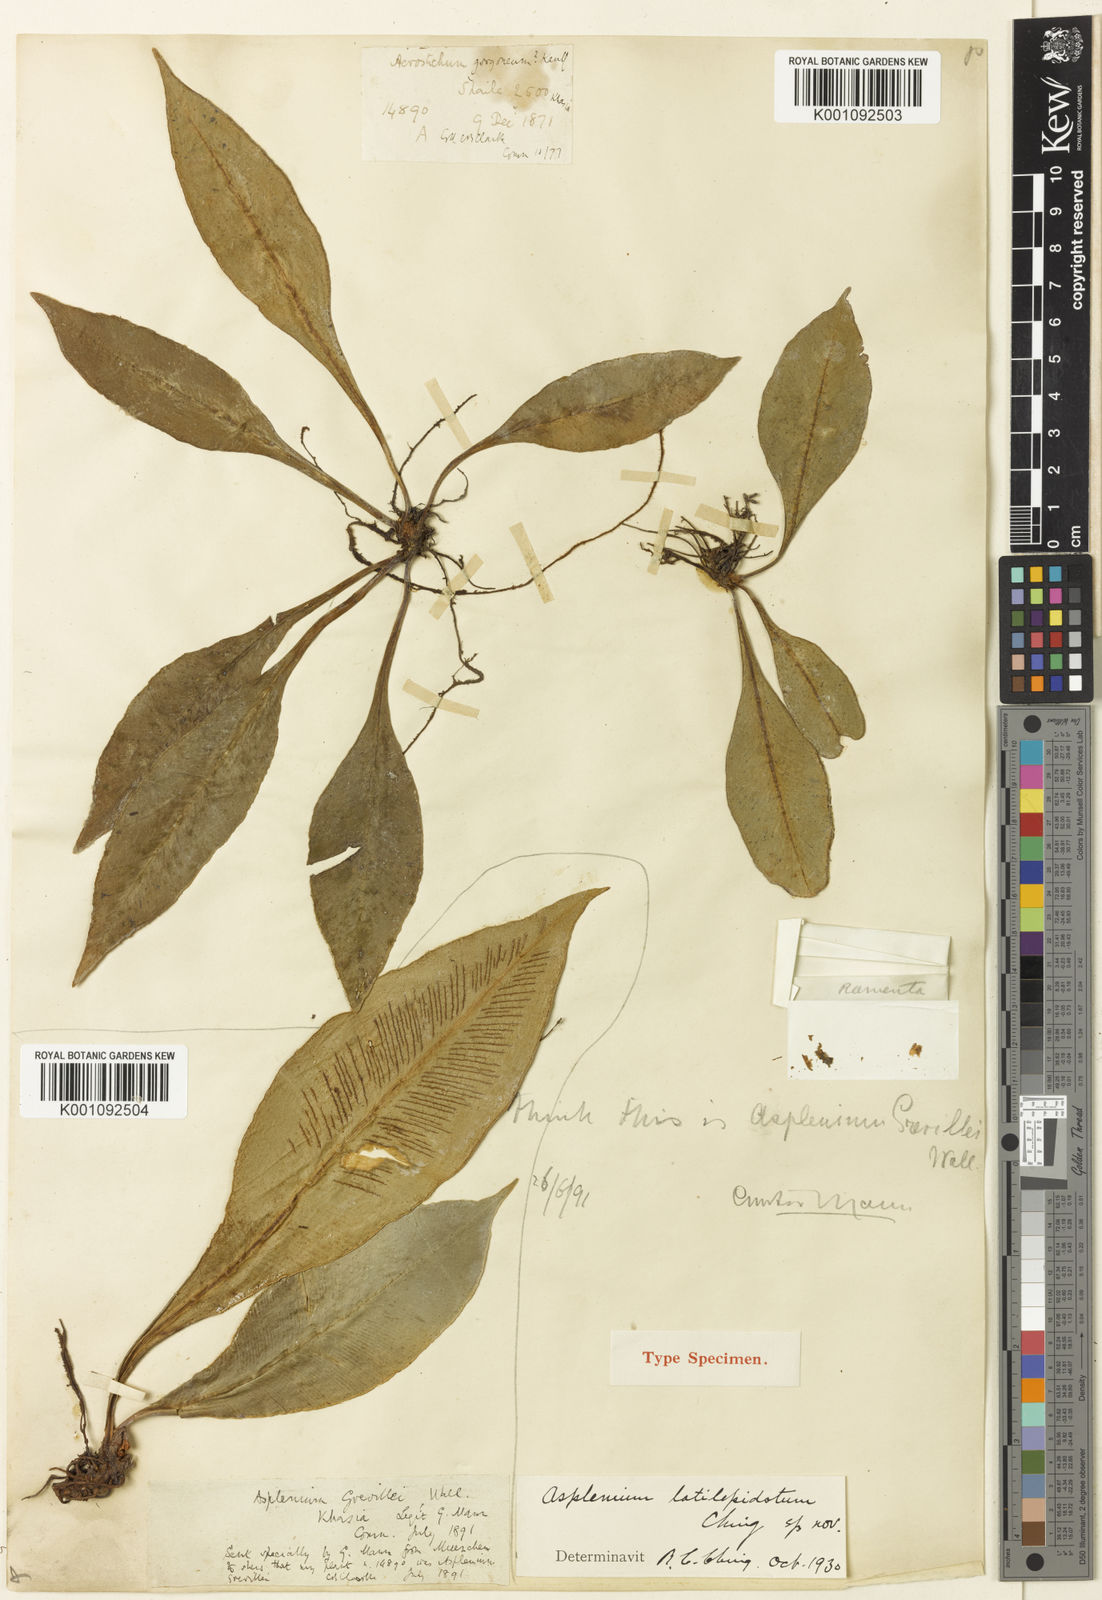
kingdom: Plantae
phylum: Tracheophyta
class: Polypodiopsida
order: Polypodiales
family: Aspleniaceae
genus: Asplenium
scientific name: Asplenium
